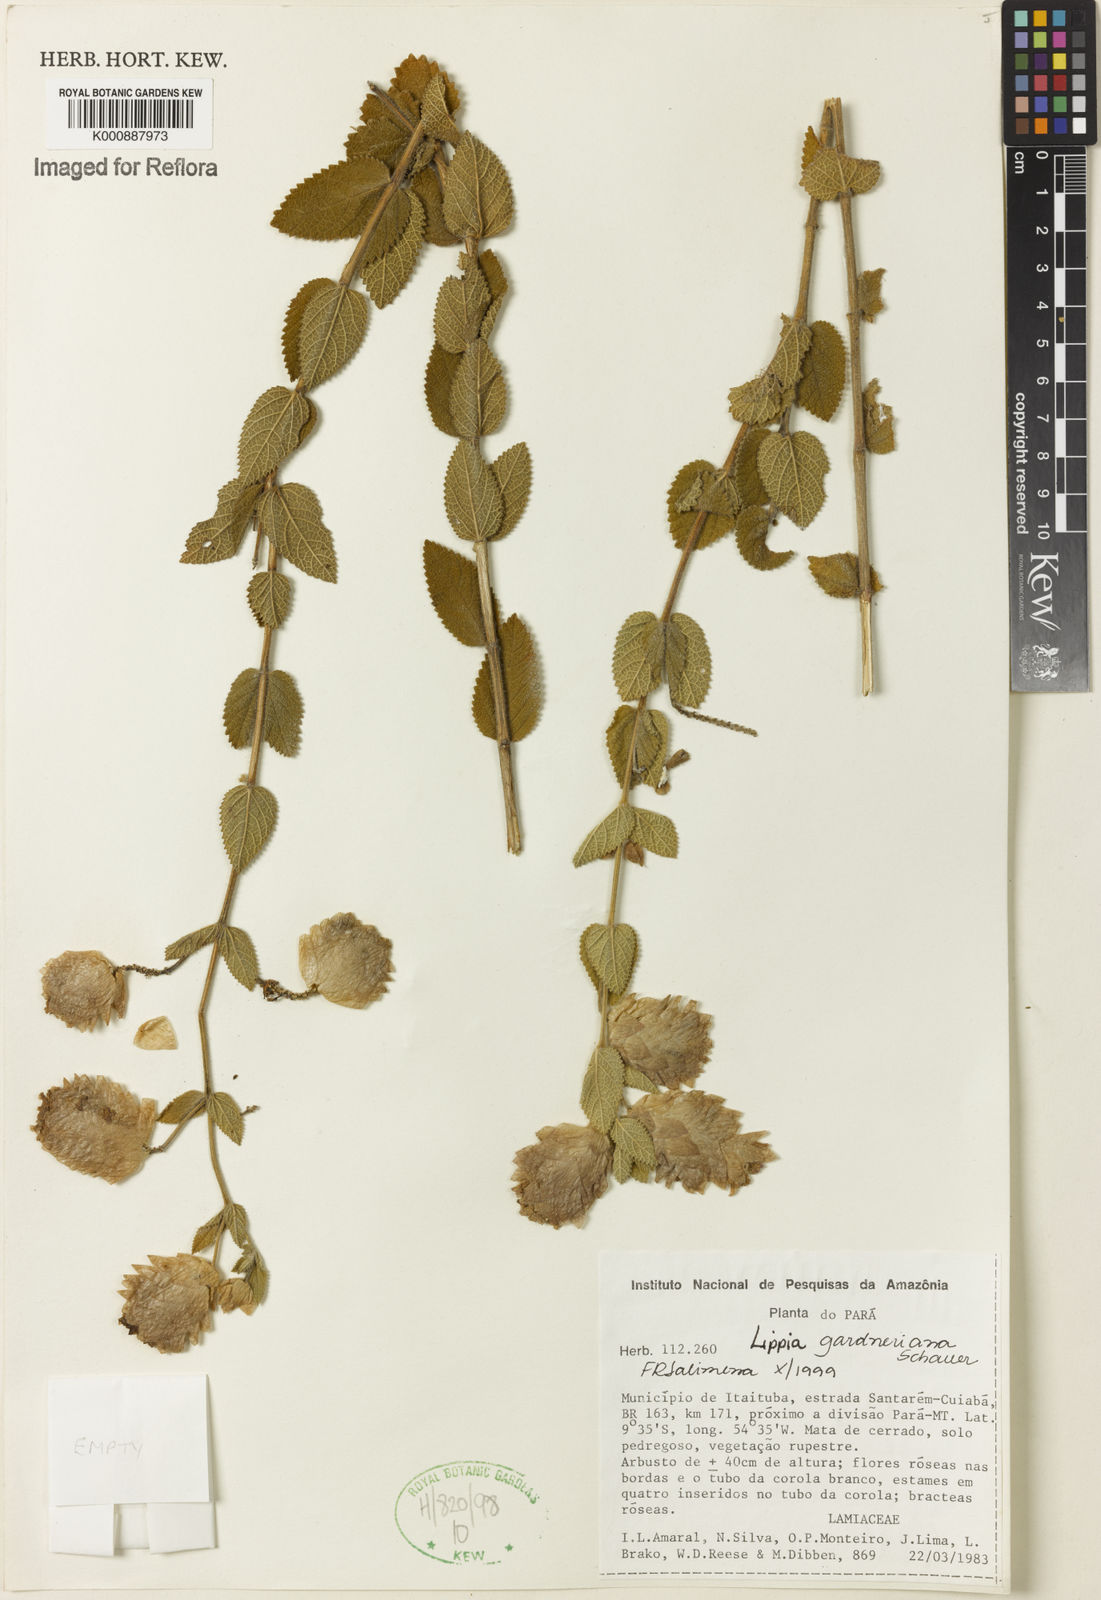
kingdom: Plantae
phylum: Tracheophyta
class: Magnoliopsida
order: Lamiales
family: Verbenaceae
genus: Lippia
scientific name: Lippia gardneriana
